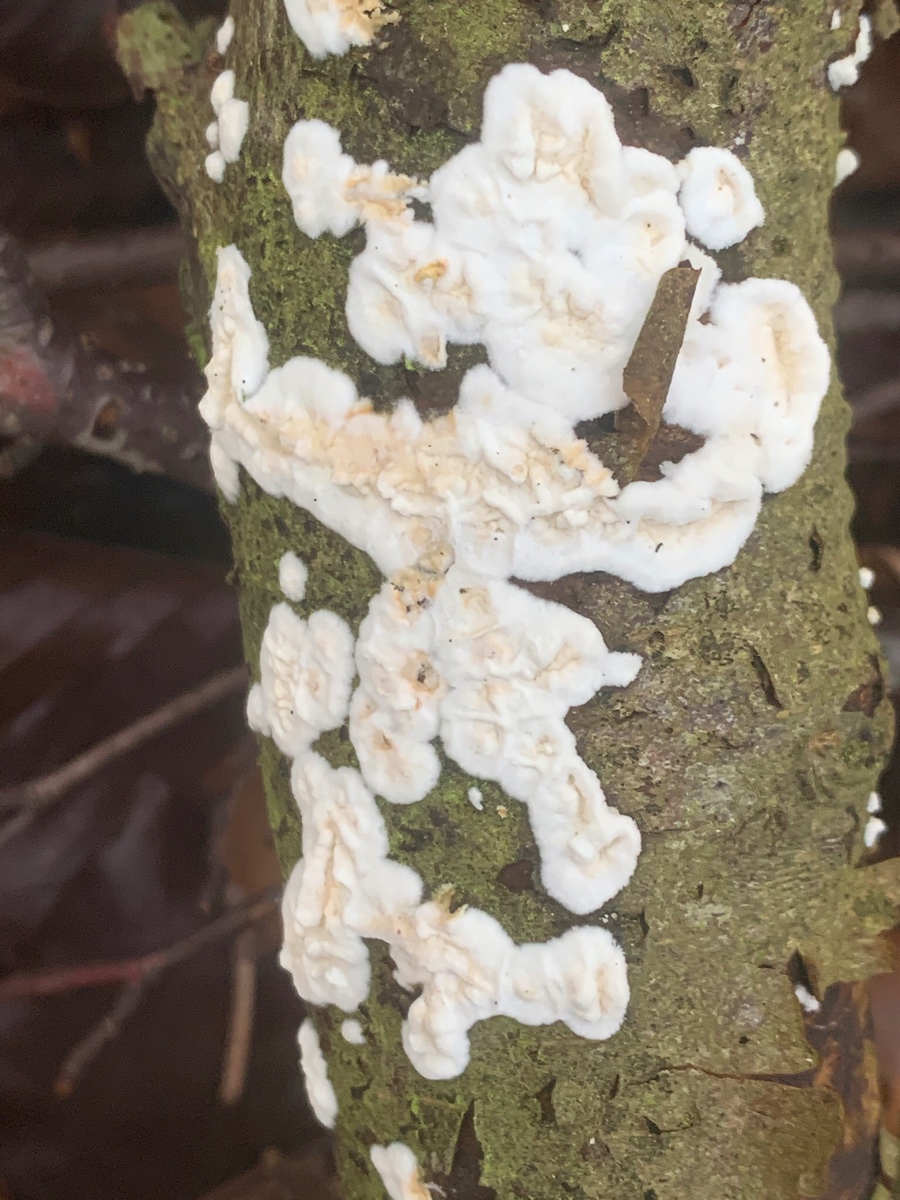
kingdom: Fungi
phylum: Basidiomycota
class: Agaricomycetes
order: Polyporales
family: Irpicaceae
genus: Byssomerulius
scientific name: Byssomerulius corium
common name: læder-åresvamp
